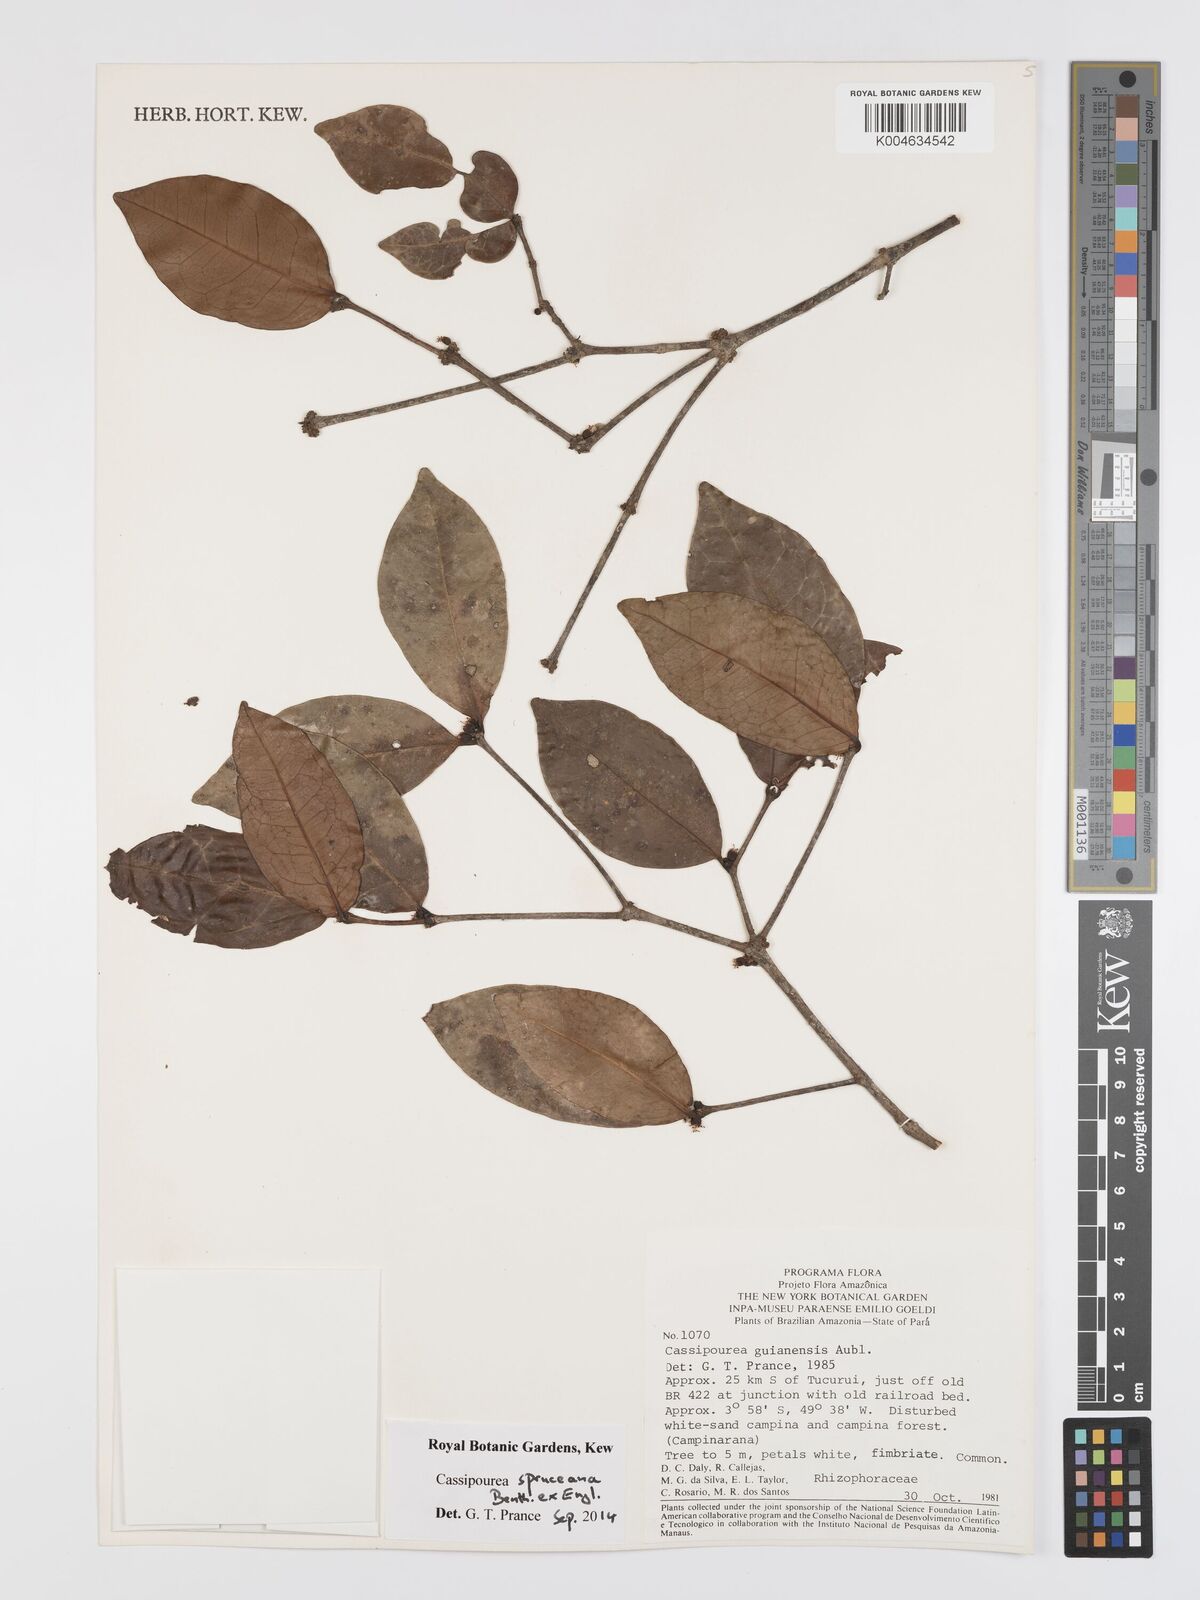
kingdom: Plantae
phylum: Tracheophyta
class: Magnoliopsida
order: Malpighiales
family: Rhizophoraceae
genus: Cassipourea
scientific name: Cassipourea spruceana
